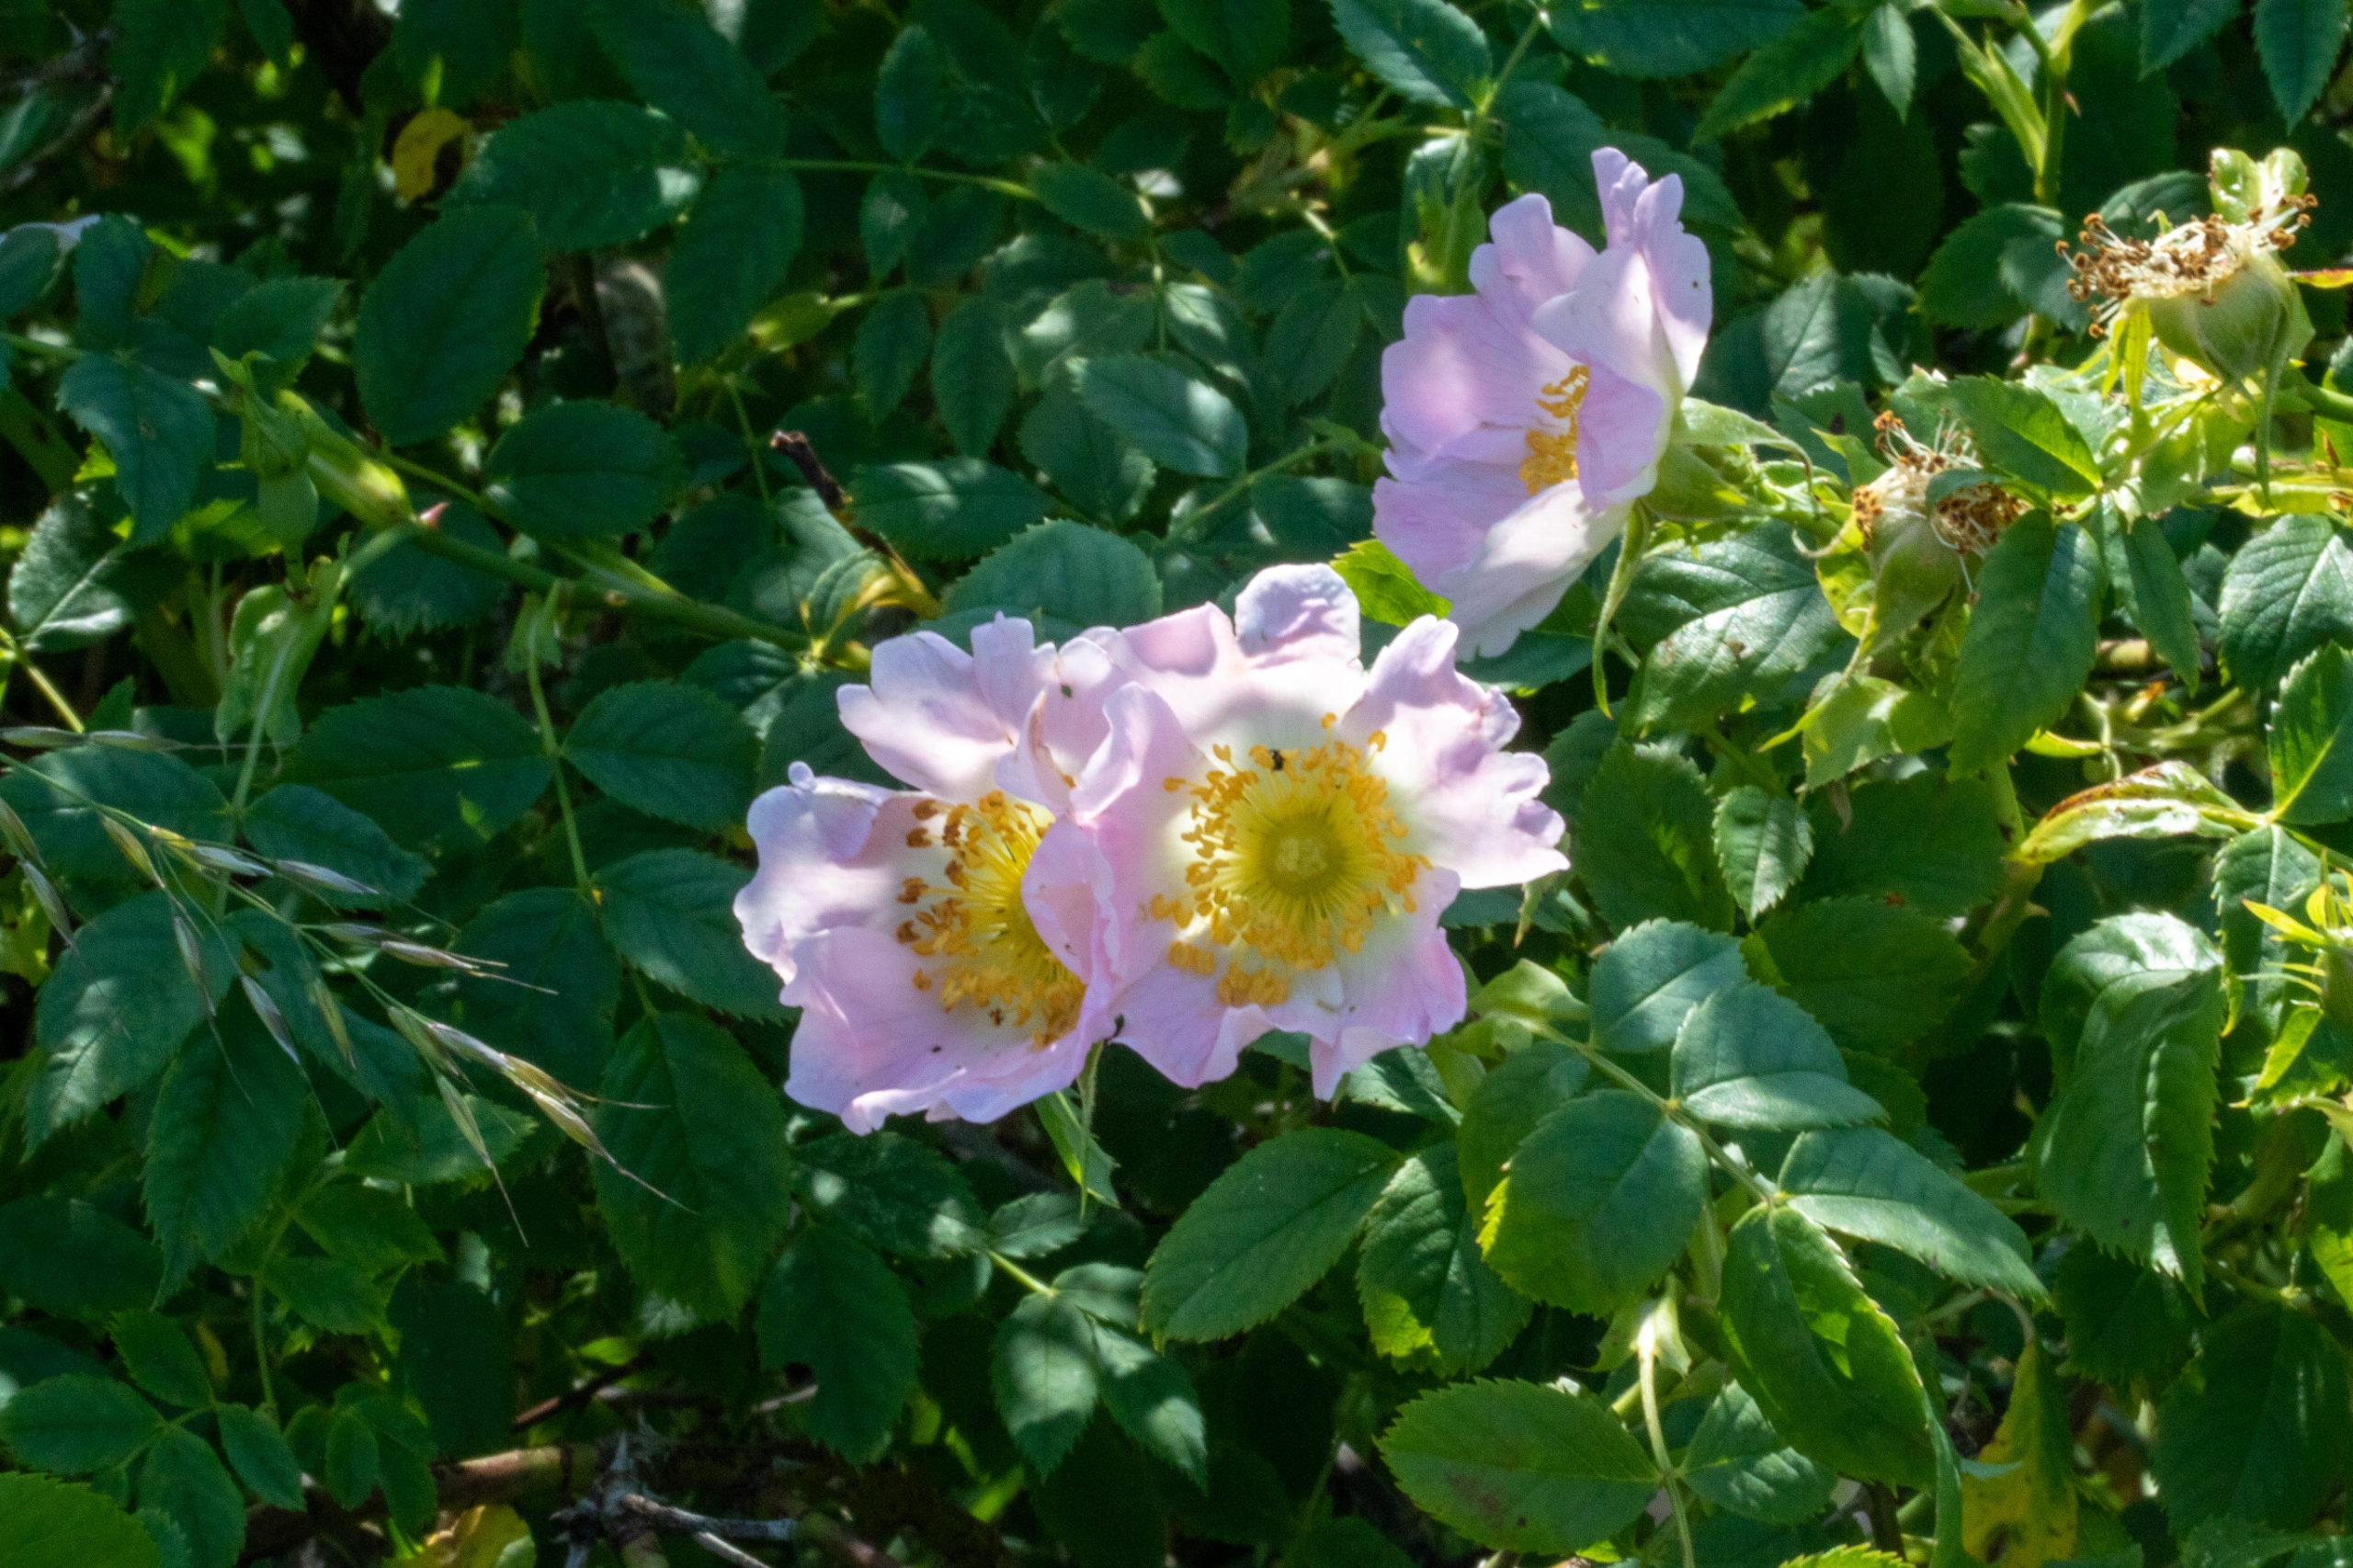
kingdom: Plantae
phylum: Tracheophyta
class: Magnoliopsida
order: Rosales
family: Rosaceae
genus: Rosa
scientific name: Rosa canina
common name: Glat hunde-rose
